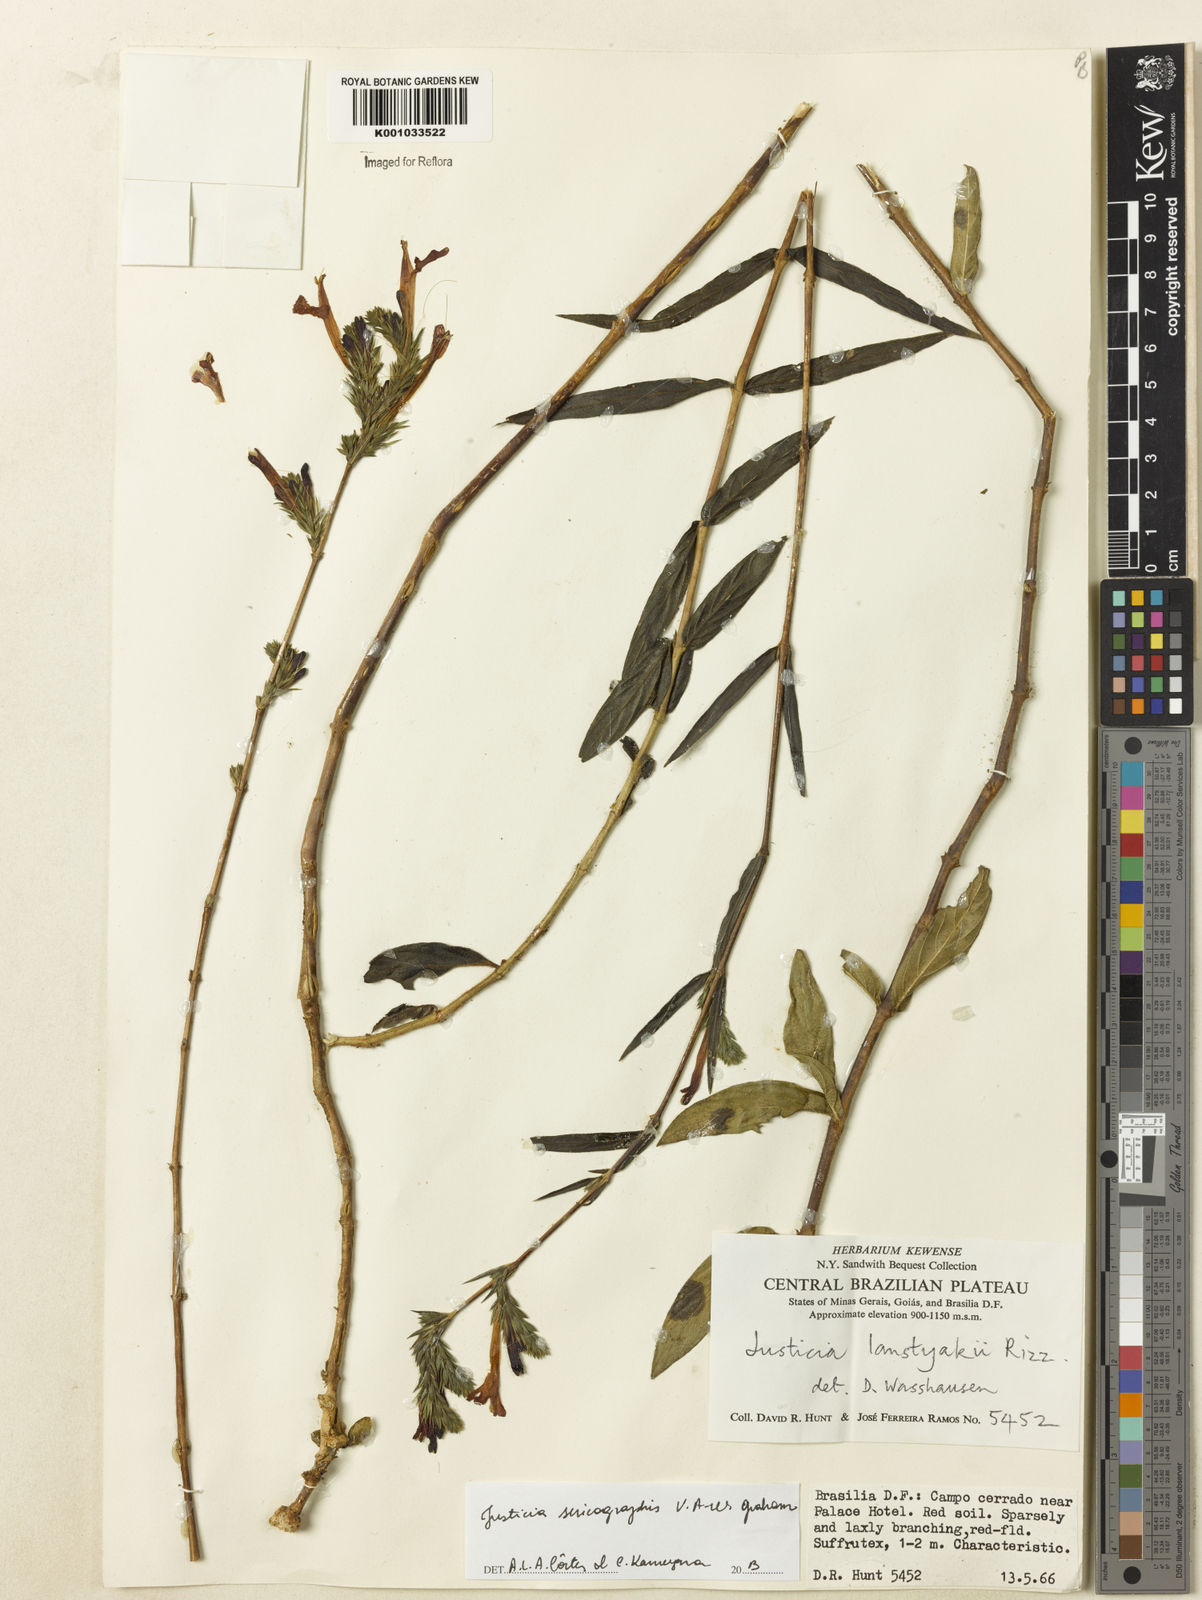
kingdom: Plantae
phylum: Tracheophyta
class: Magnoliopsida
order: Lamiales
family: Acanthaceae
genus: Dianthera
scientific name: Dianthera rigida
